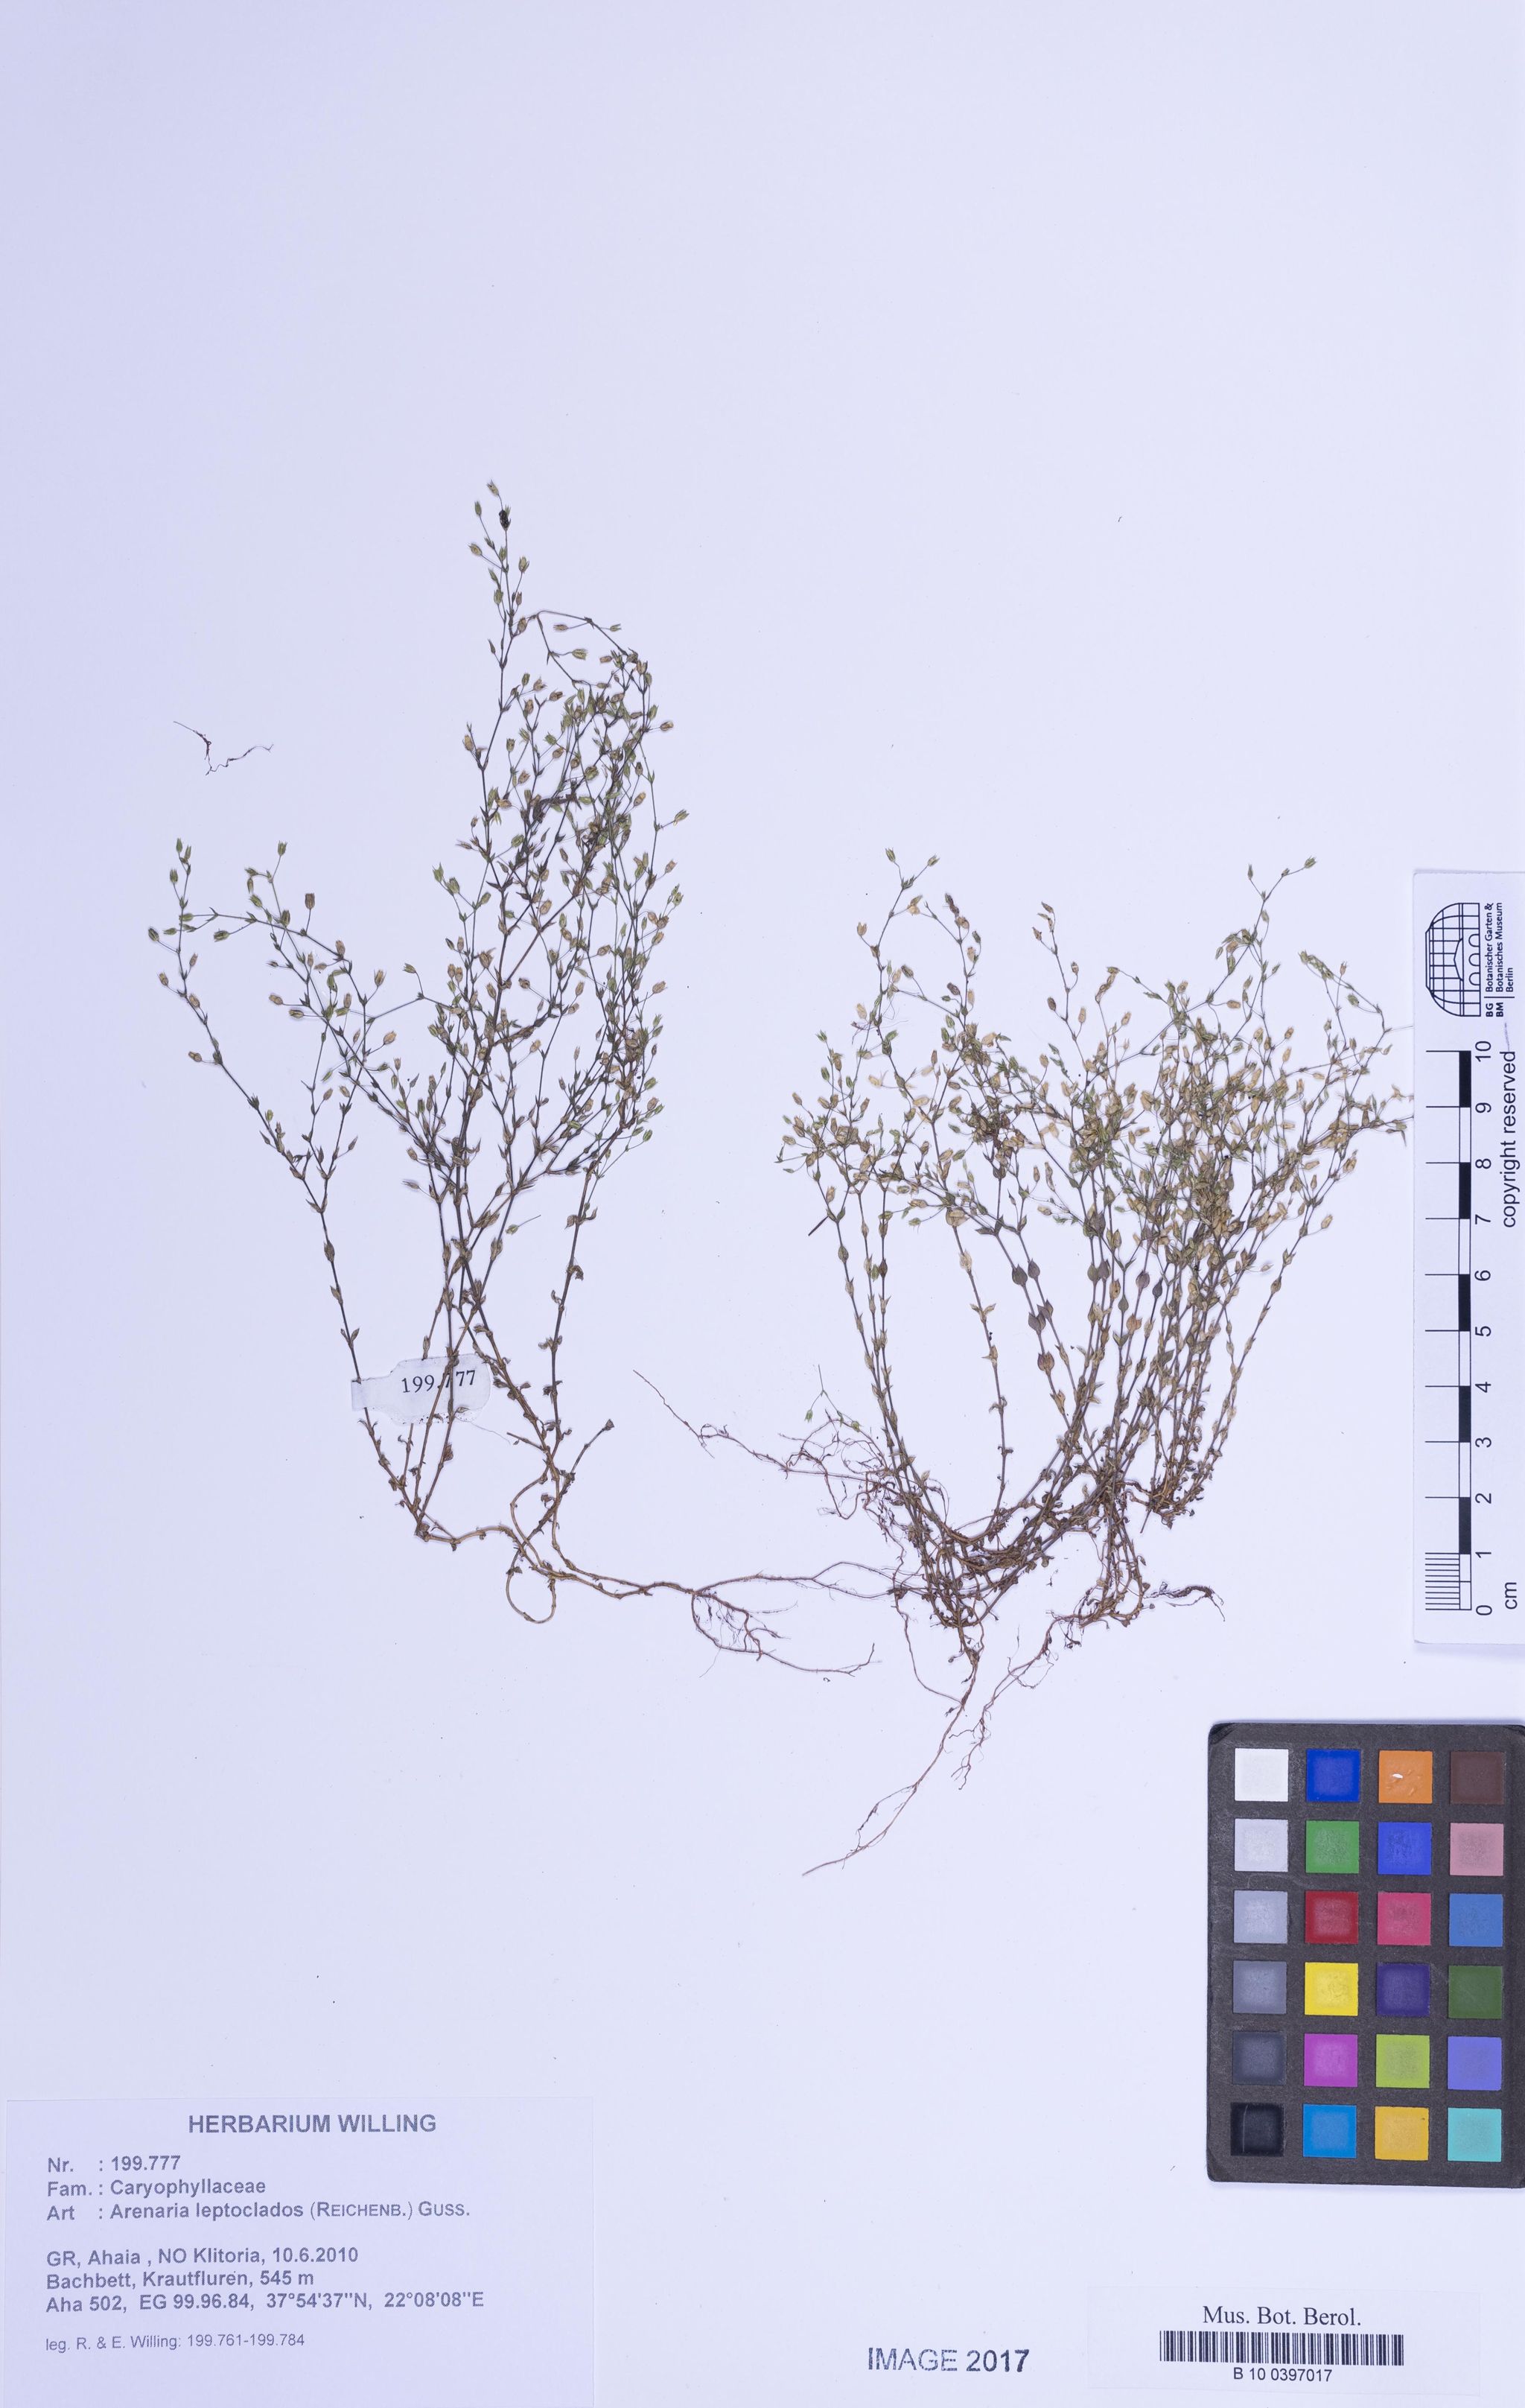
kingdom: Plantae
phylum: Tracheophyta
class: Magnoliopsida
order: Caryophyllales
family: Caryophyllaceae
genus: Arenaria
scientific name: Arenaria leptoclados
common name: Thyme-leaved sandwort
